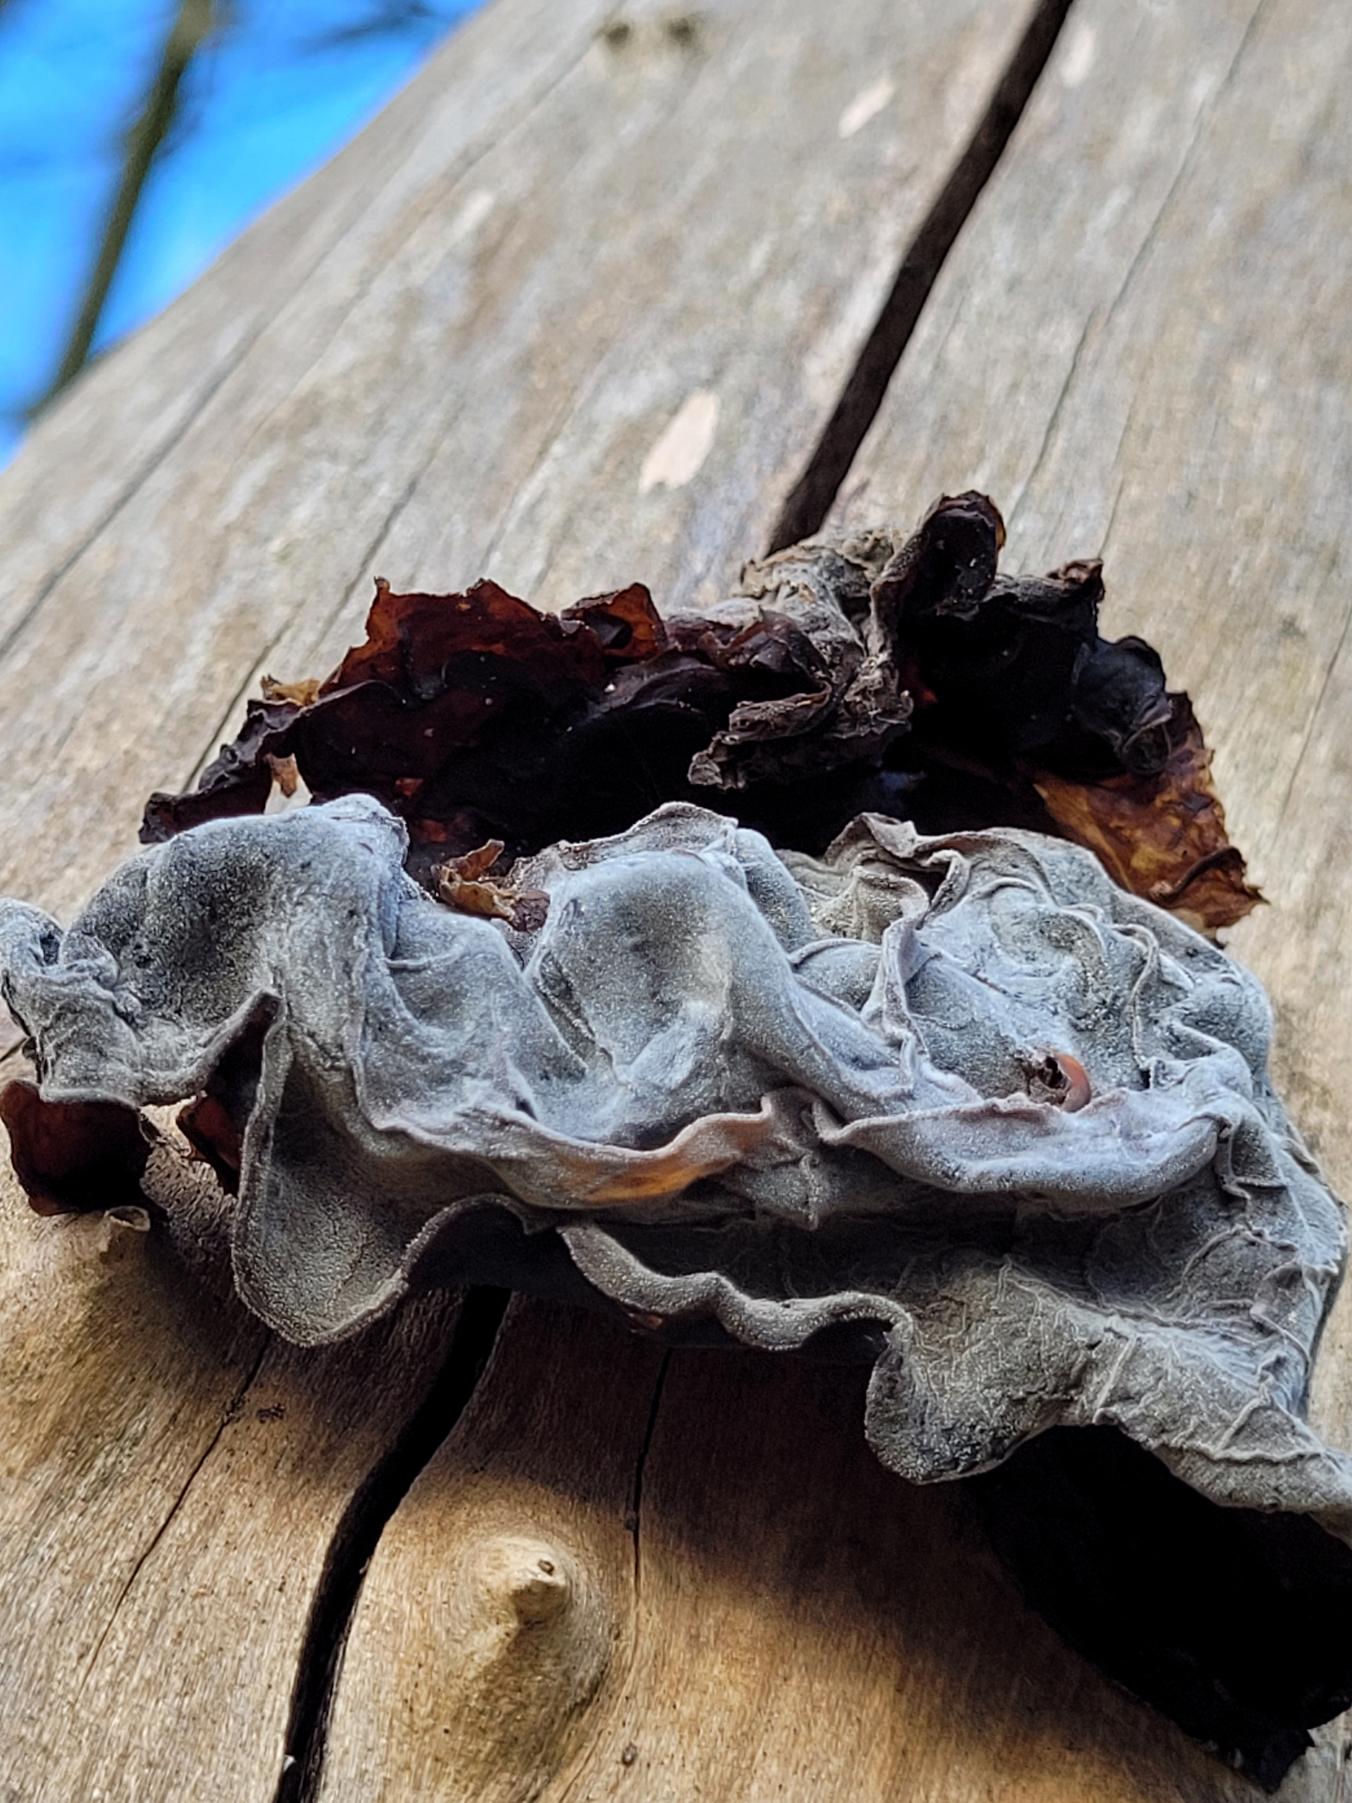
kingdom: Fungi
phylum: Basidiomycota
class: Agaricomycetes
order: Auriculariales
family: Auriculariaceae
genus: Auricularia
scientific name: Auricularia auricula-judae
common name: Almindelig judasøre
